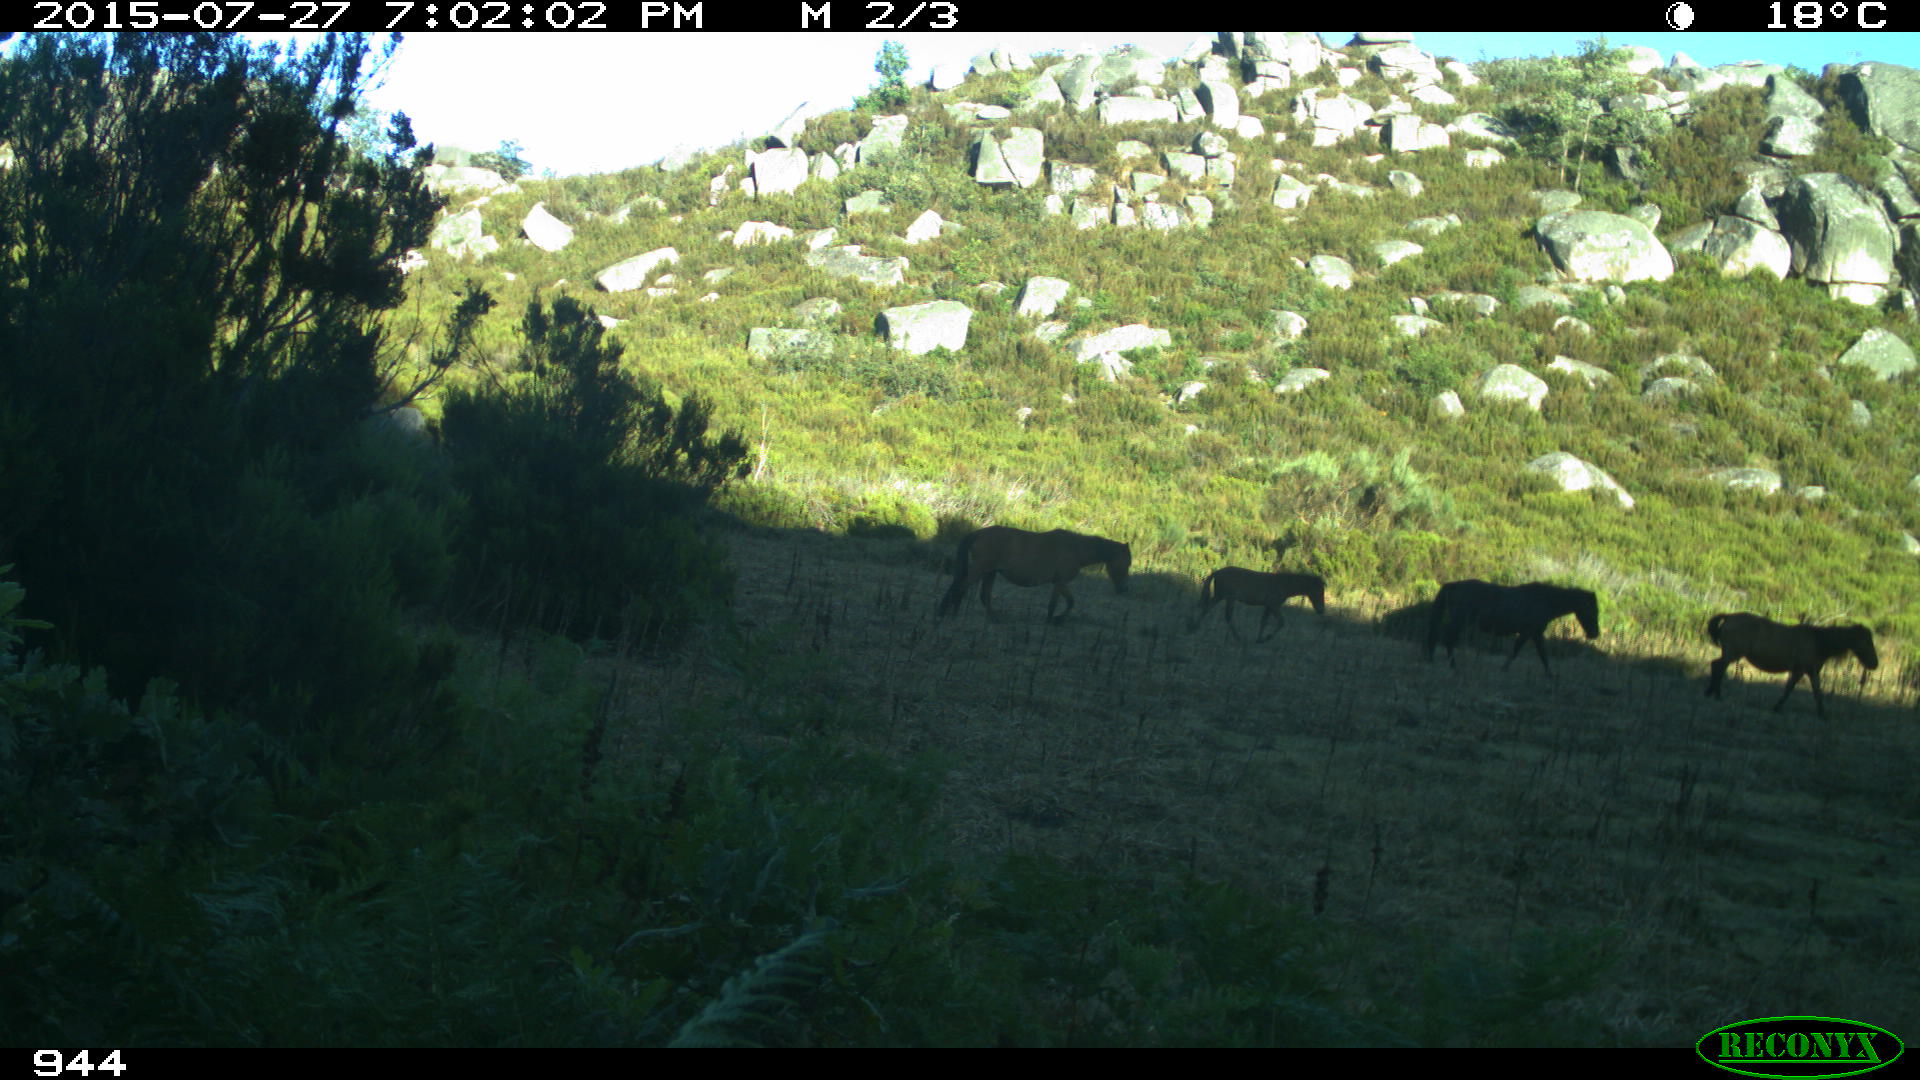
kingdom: Animalia
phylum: Chordata
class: Mammalia
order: Perissodactyla
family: Equidae
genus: Equus
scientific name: Equus caballus
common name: Horse
